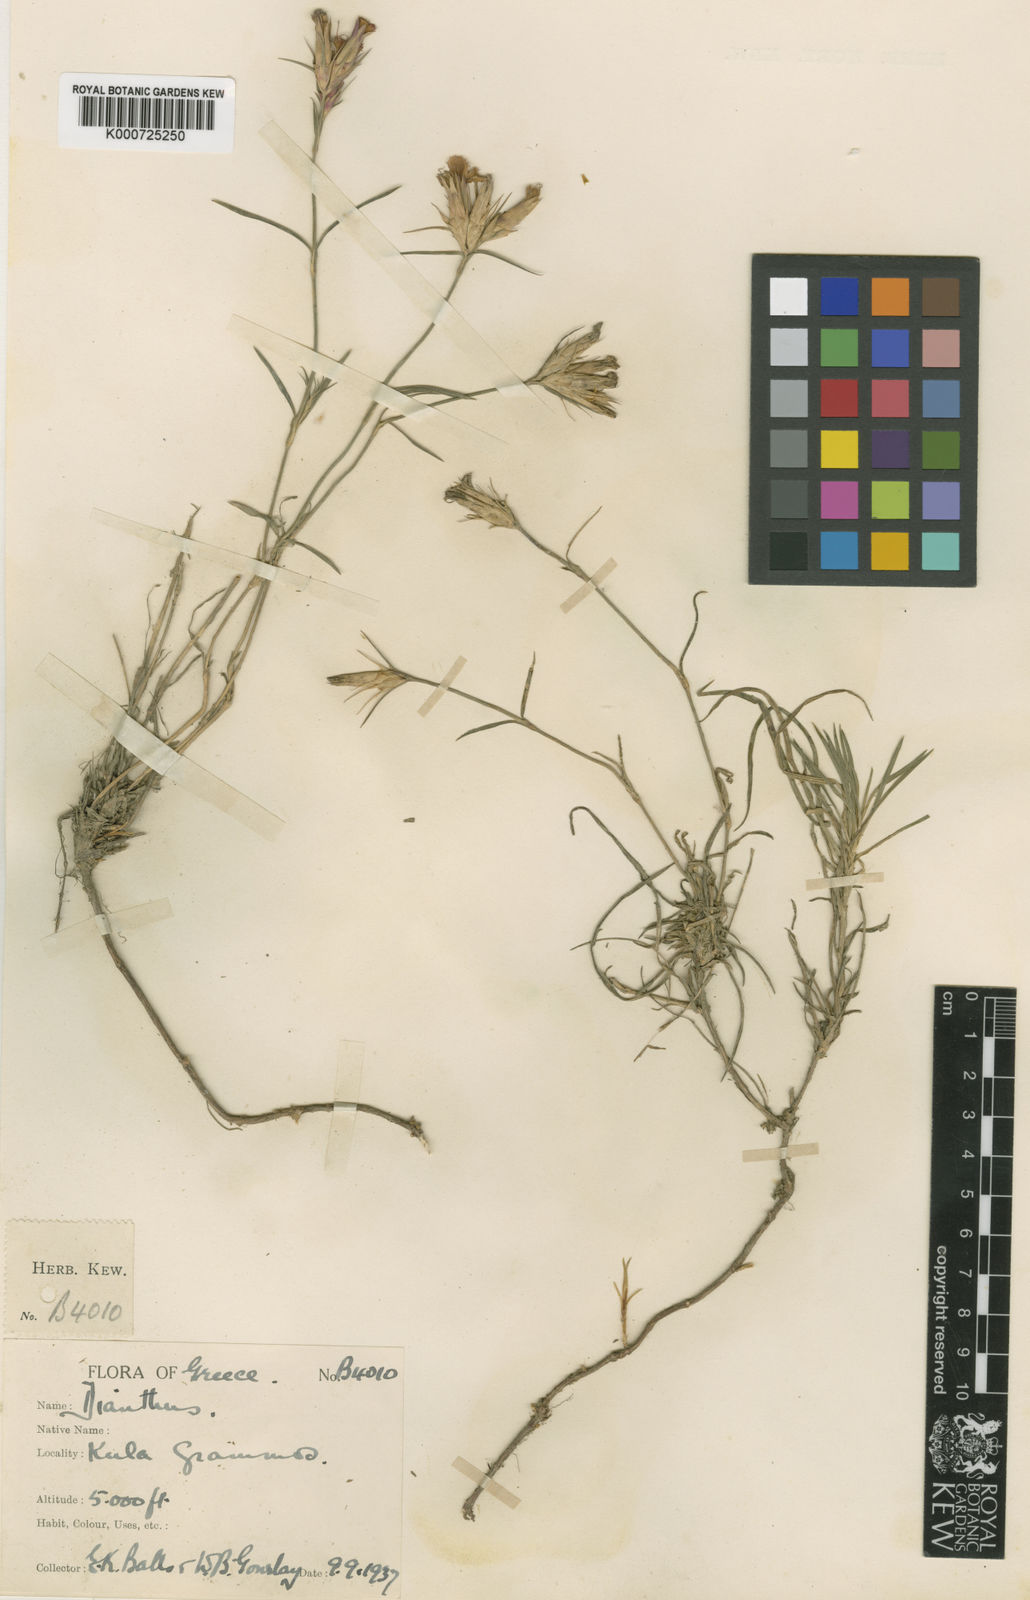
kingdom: Plantae
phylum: Tracheophyta
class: Magnoliopsida
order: Caryophyllales
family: Caryophyllaceae
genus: Dianthus
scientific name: Dianthus viscidus
